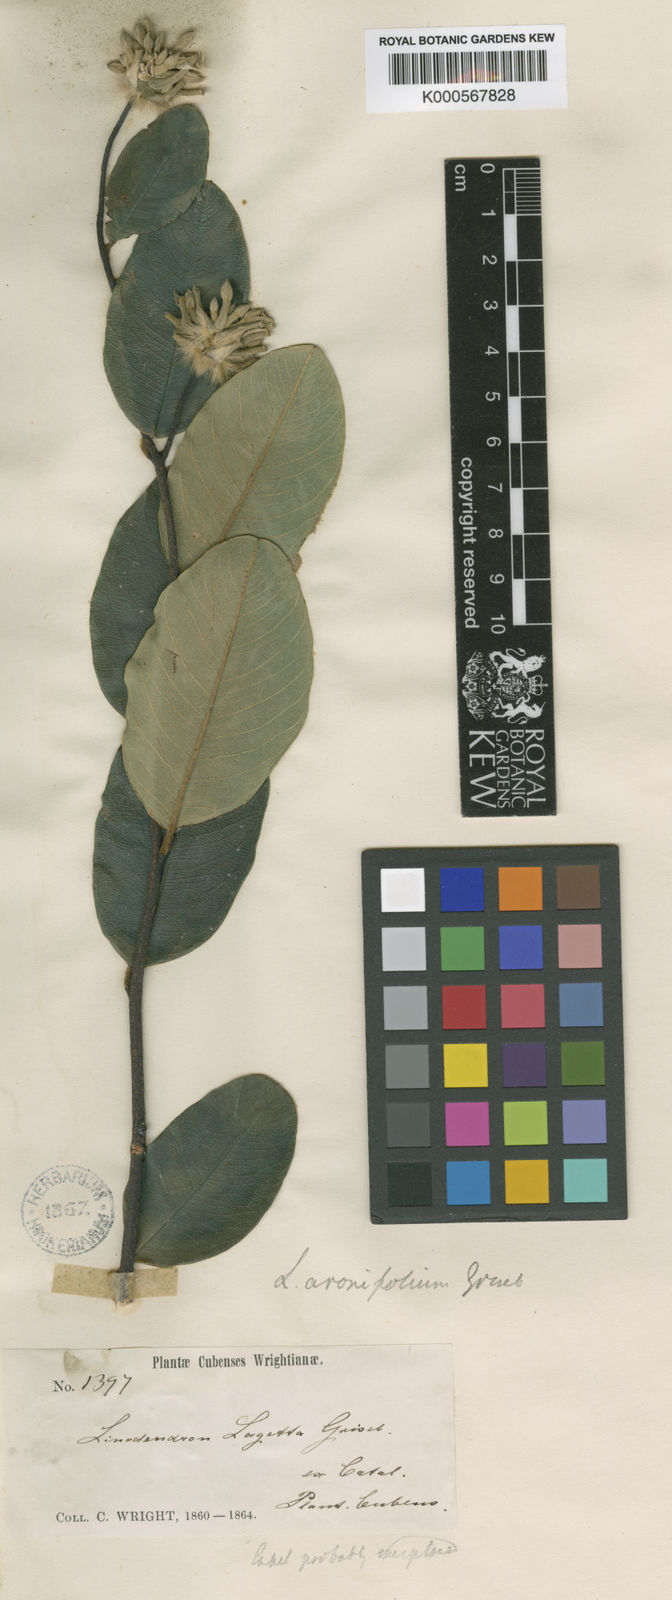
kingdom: Plantae
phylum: Tracheophyta
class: Magnoliopsida
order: Malvales
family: Thymelaeaceae
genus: Linodendron
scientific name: Linodendron aronifolium
